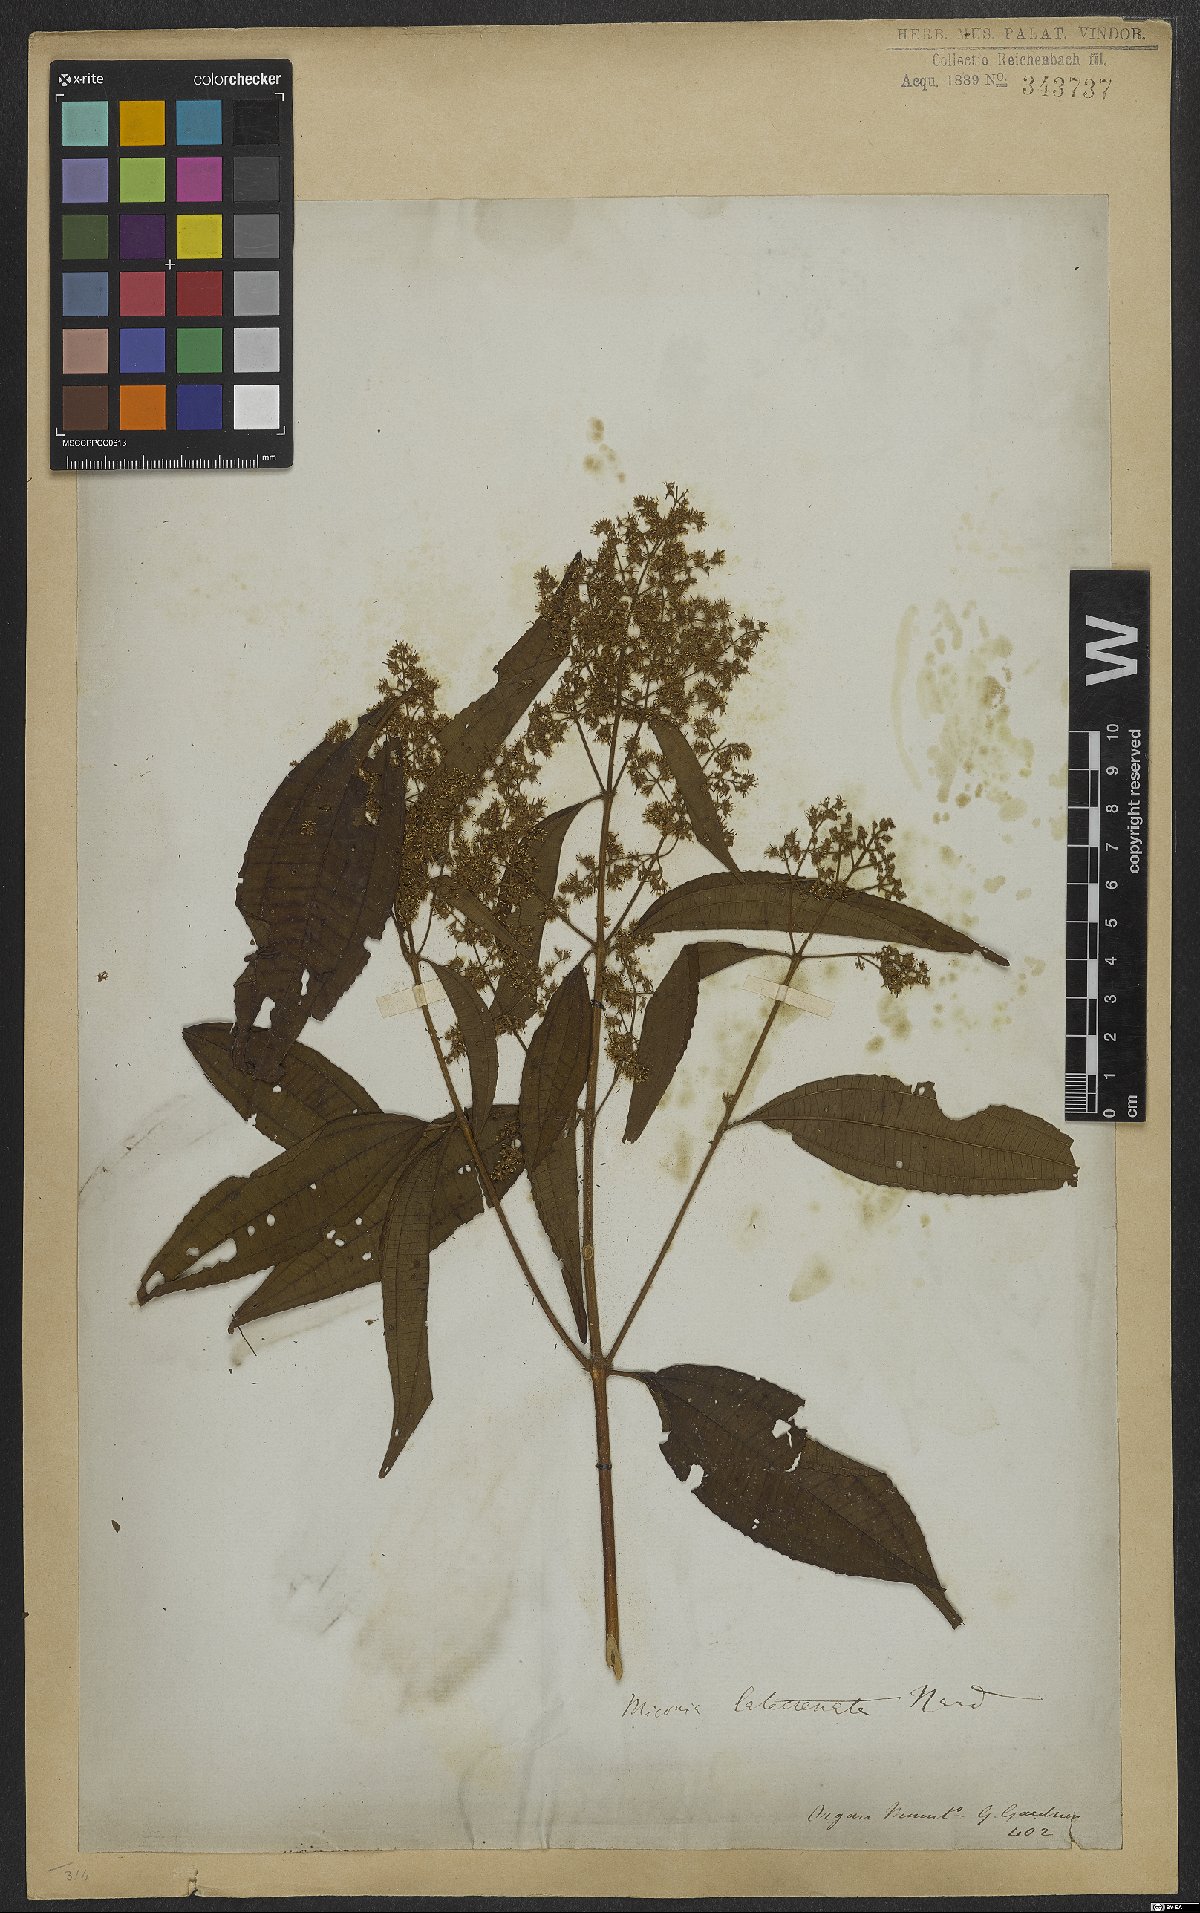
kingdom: Plantae
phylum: Tracheophyta
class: Magnoliopsida
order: Myrtales
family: Melastomataceae
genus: Miconia
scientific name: Miconia latecrenata
